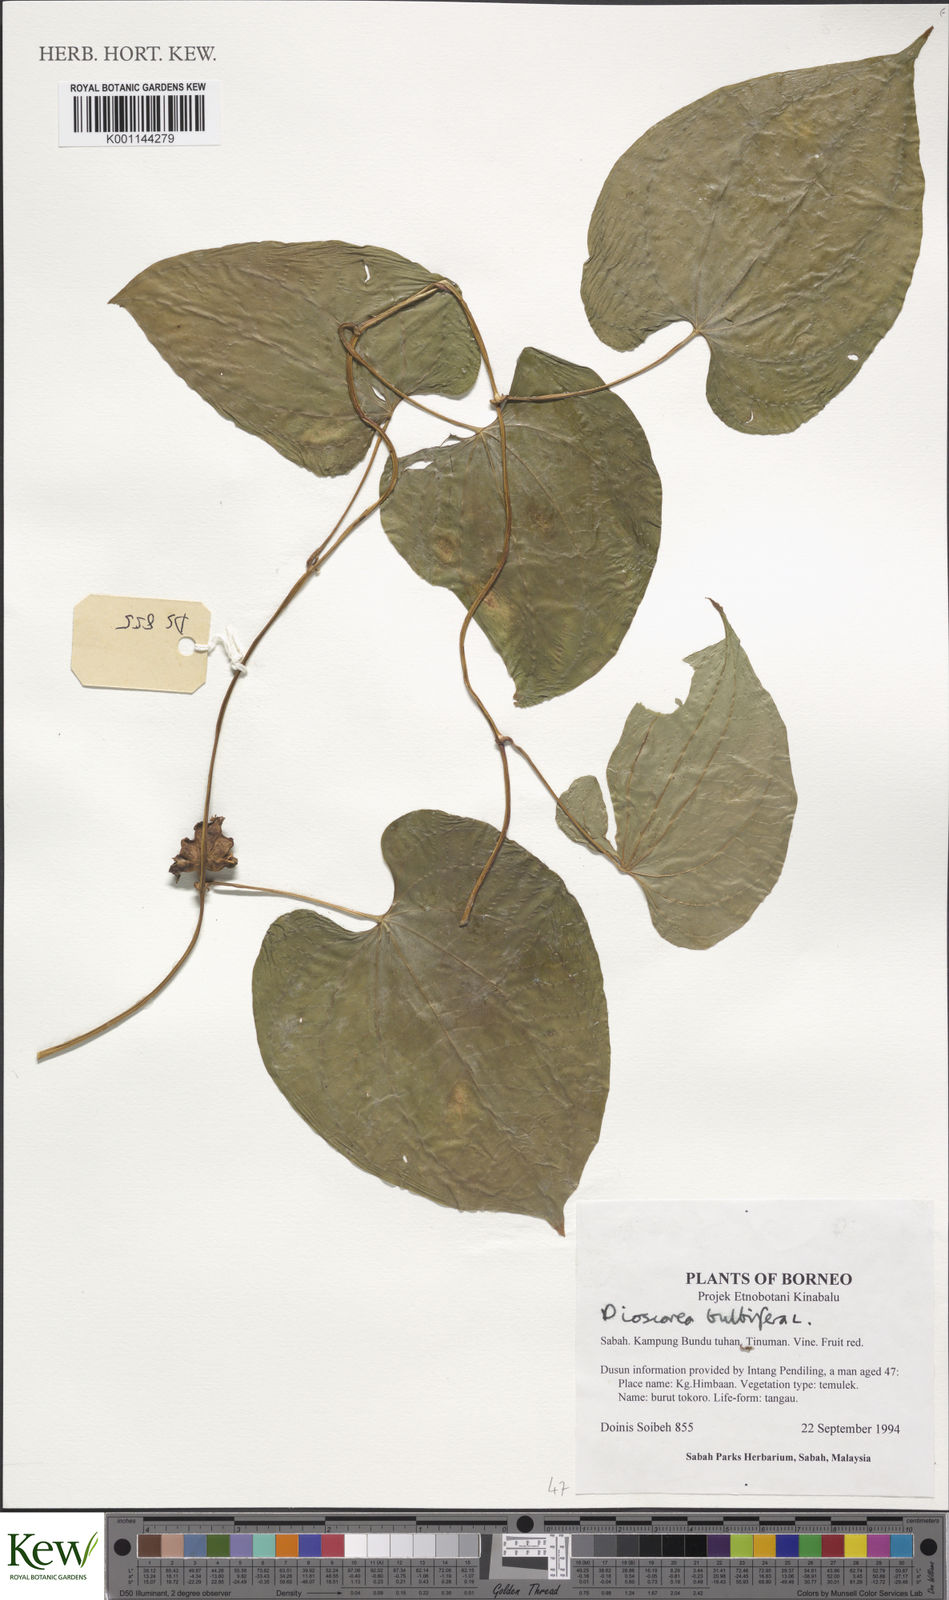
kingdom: Plantae
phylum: Tracheophyta
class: Liliopsida
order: Dioscoreales
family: Dioscoreaceae
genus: Dioscorea
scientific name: Dioscorea bulbifera
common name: Air yam
